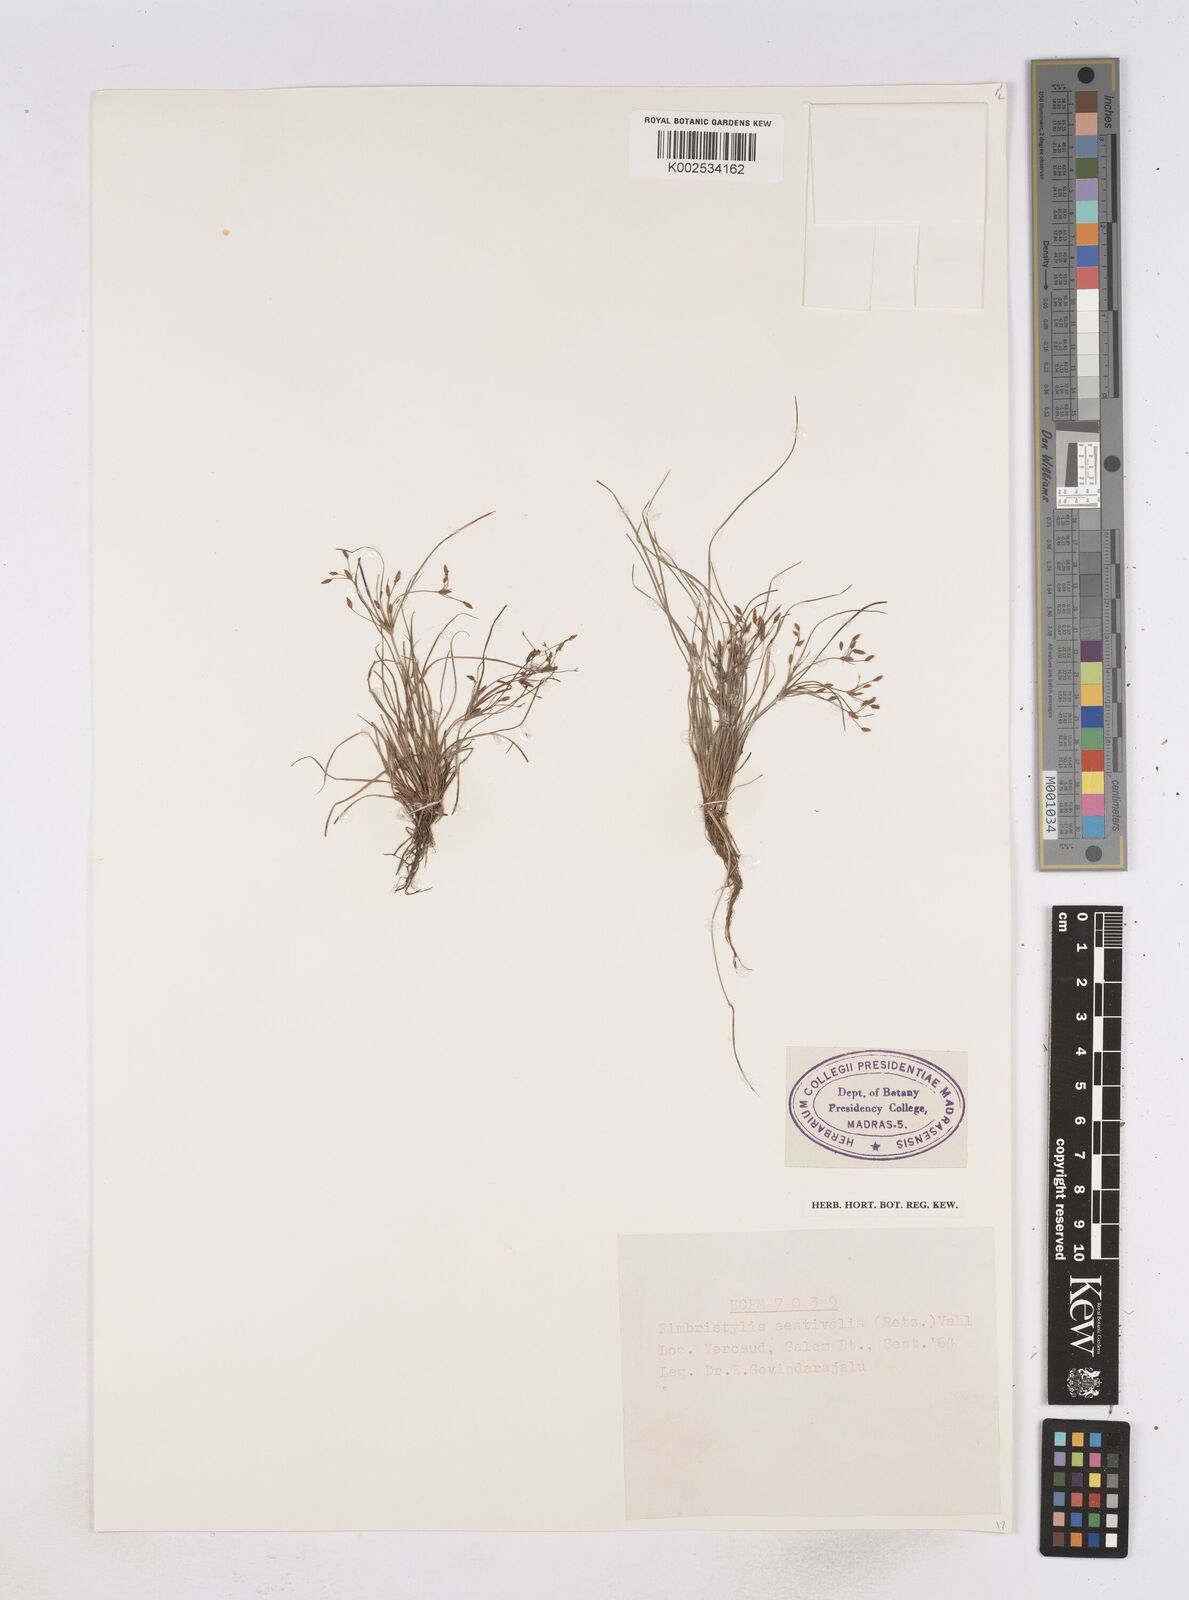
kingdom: Plantae
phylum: Tracheophyta
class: Liliopsida
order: Poales
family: Cyperaceae
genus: Fimbristylis
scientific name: Fimbristylis aestivalis
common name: Summer fimbry
